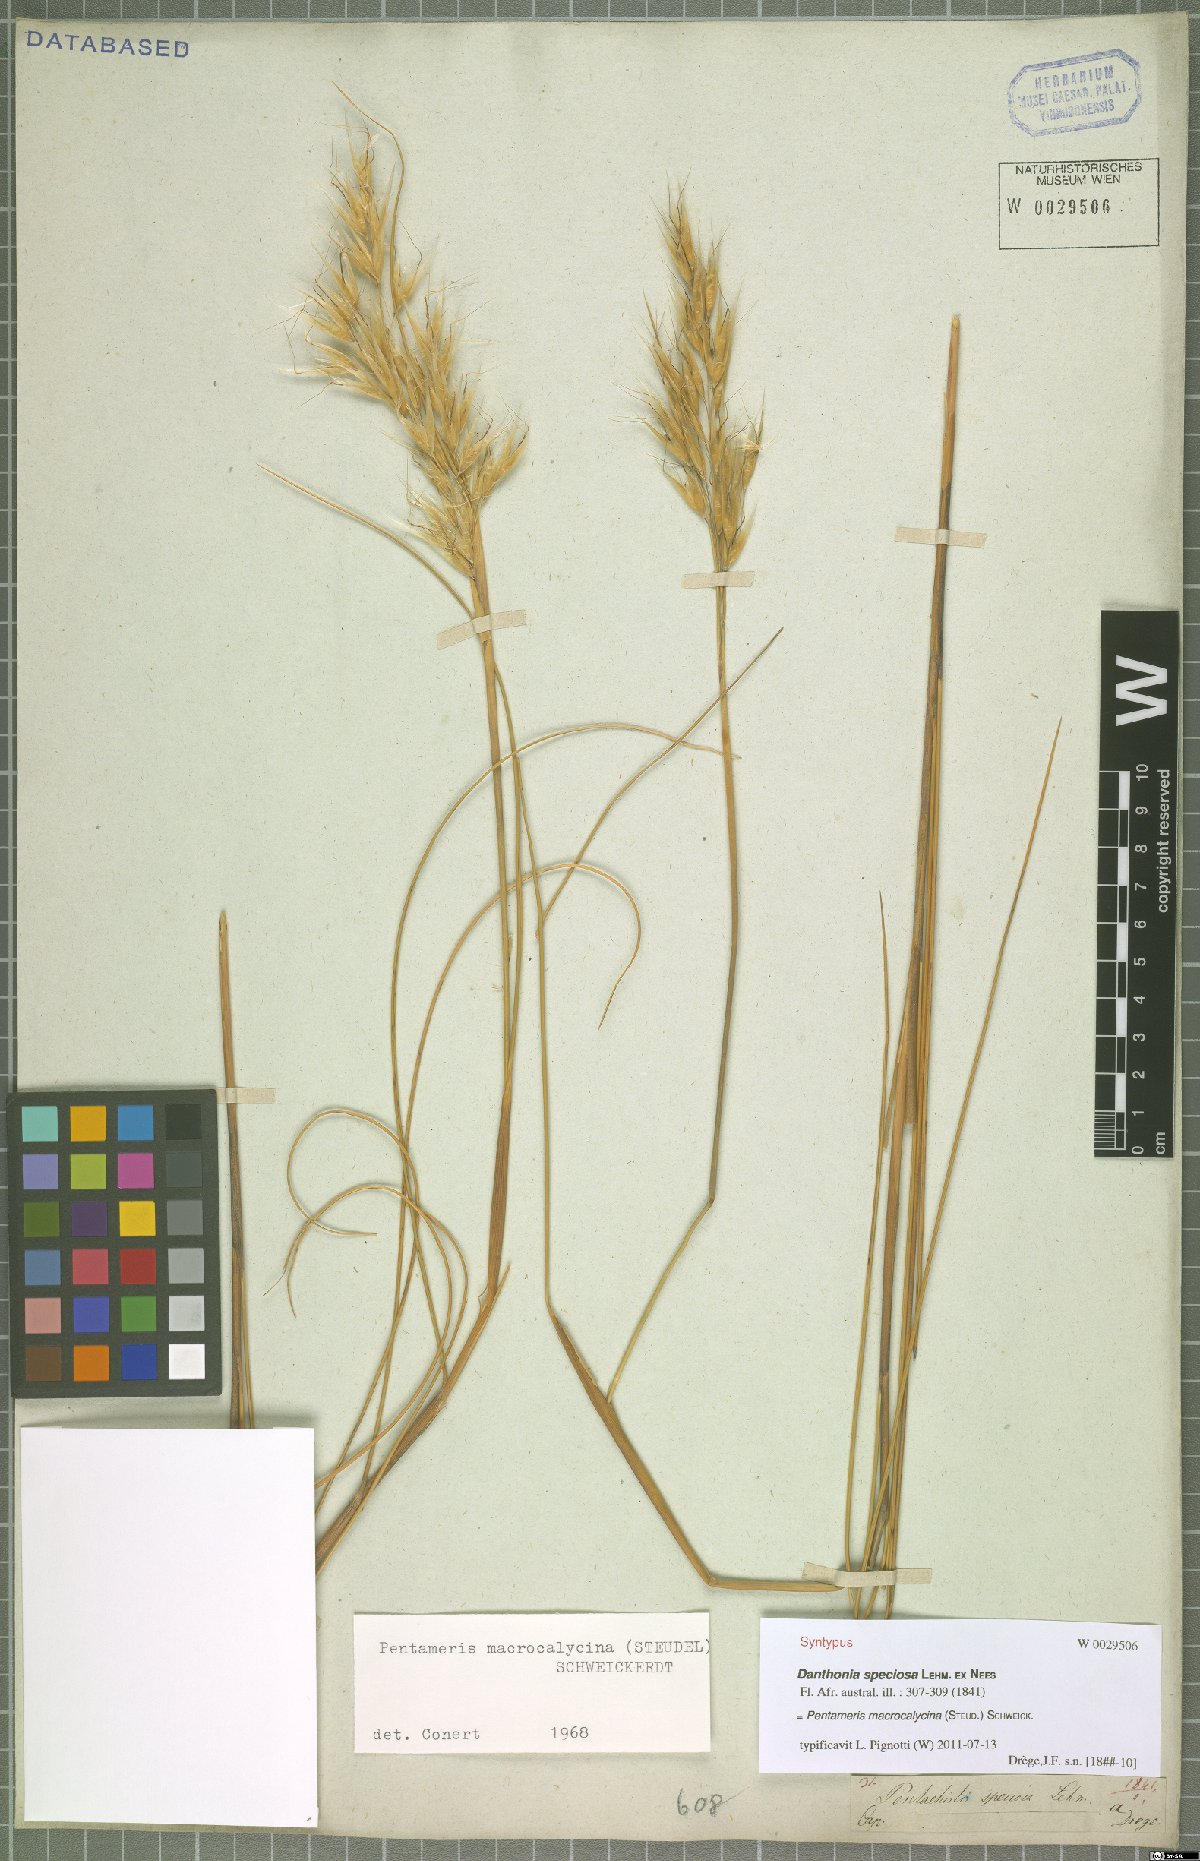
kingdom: Plantae
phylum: Tracheophyta
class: Liliopsida
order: Poales
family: Poaceae
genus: Pentameris
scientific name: Pentameris macrocalycina
